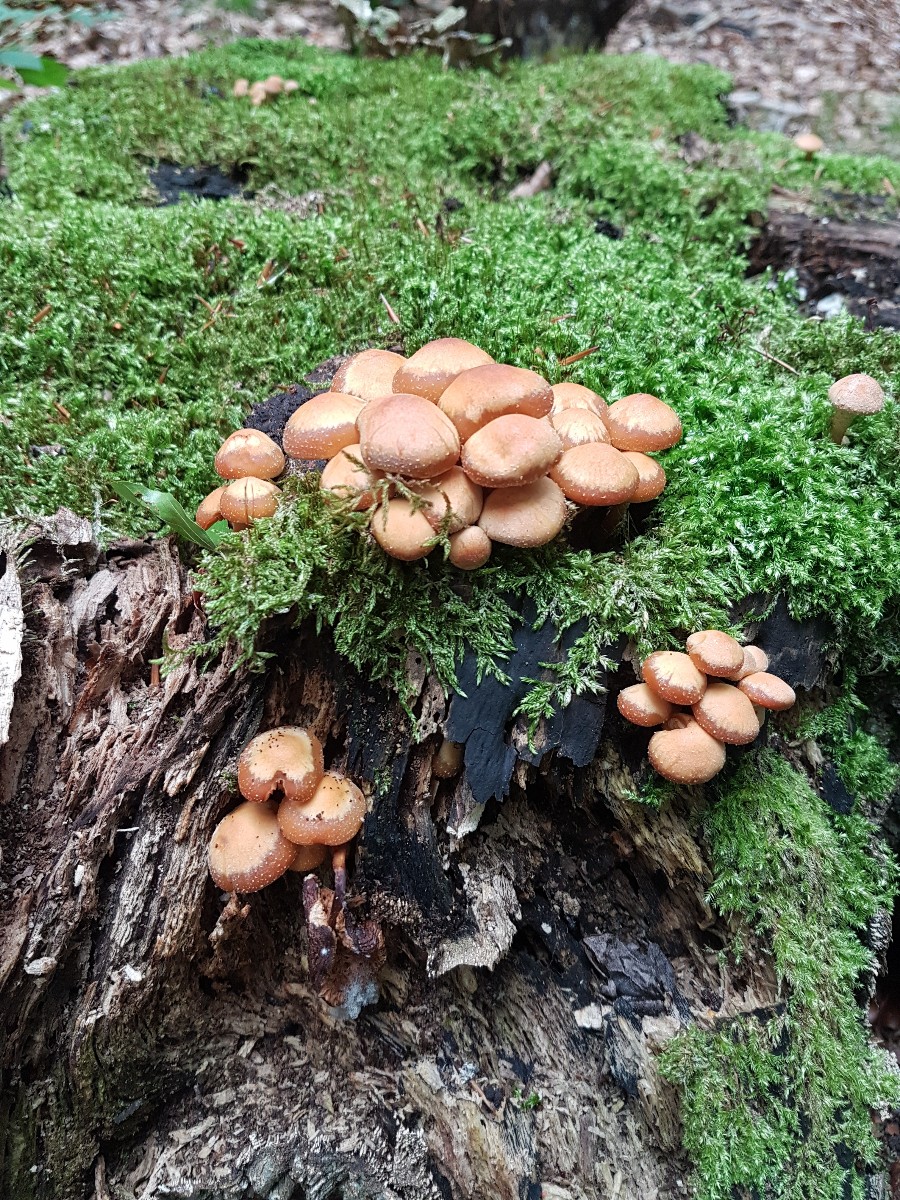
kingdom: Fungi
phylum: Basidiomycota
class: Agaricomycetes
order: Agaricales
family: Strophariaceae
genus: Kuehneromyces
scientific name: Kuehneromyces mutabilis
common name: foranderlig skælhat
